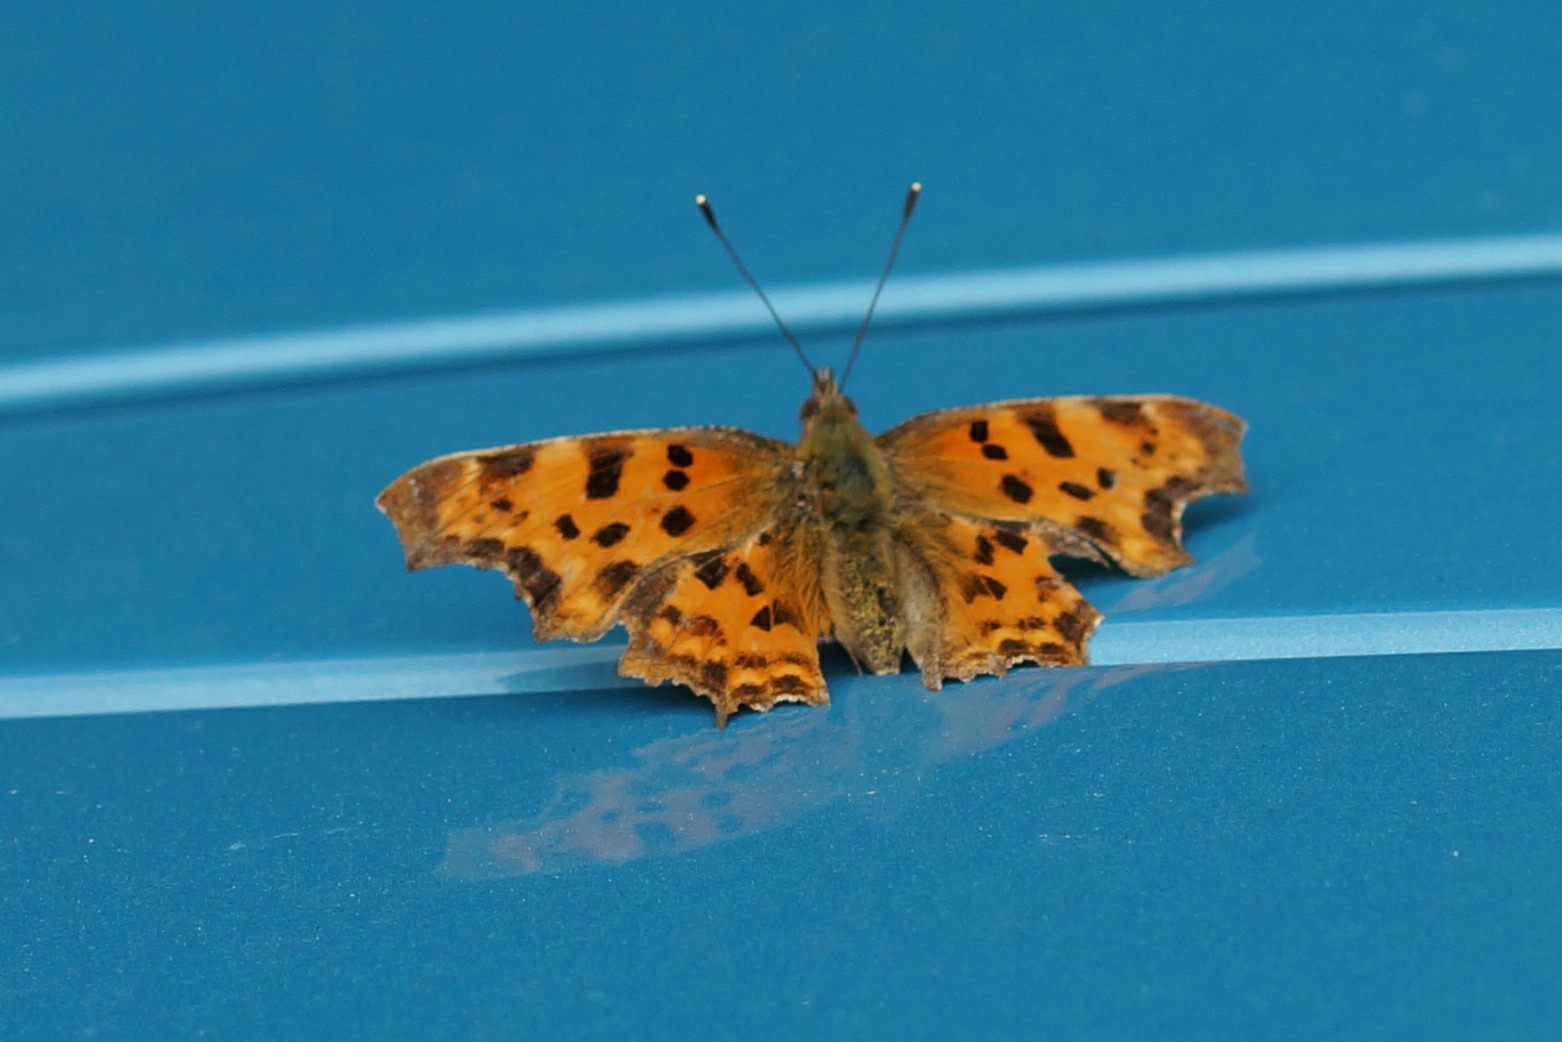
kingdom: Animalia
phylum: Arthropoda
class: Insecta
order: Lepidoptera
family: Nymphalidae
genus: Polygonia
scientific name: Polygonia c-album
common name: Det hvide C
